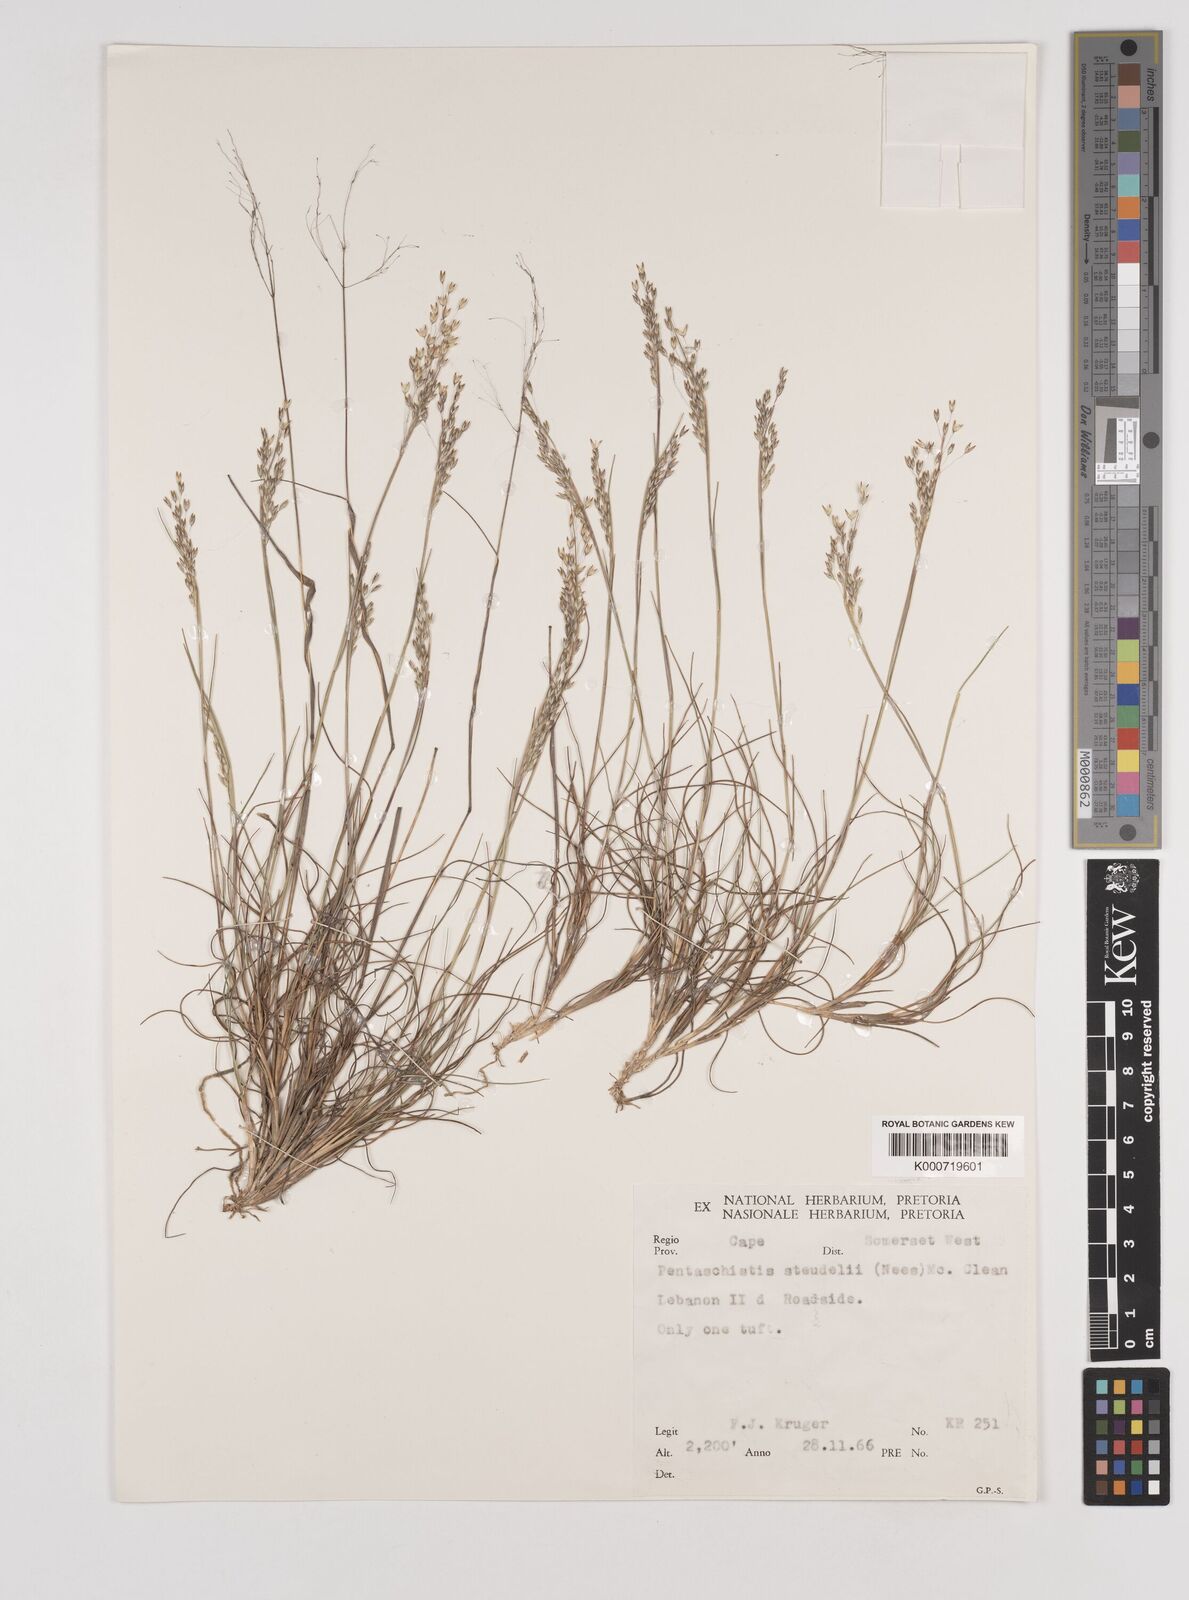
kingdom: Plantae
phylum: Tracheophyta
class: Liliopsida
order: Poales
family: Poaceae
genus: Pentameris
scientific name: Pentameris malouinensis
